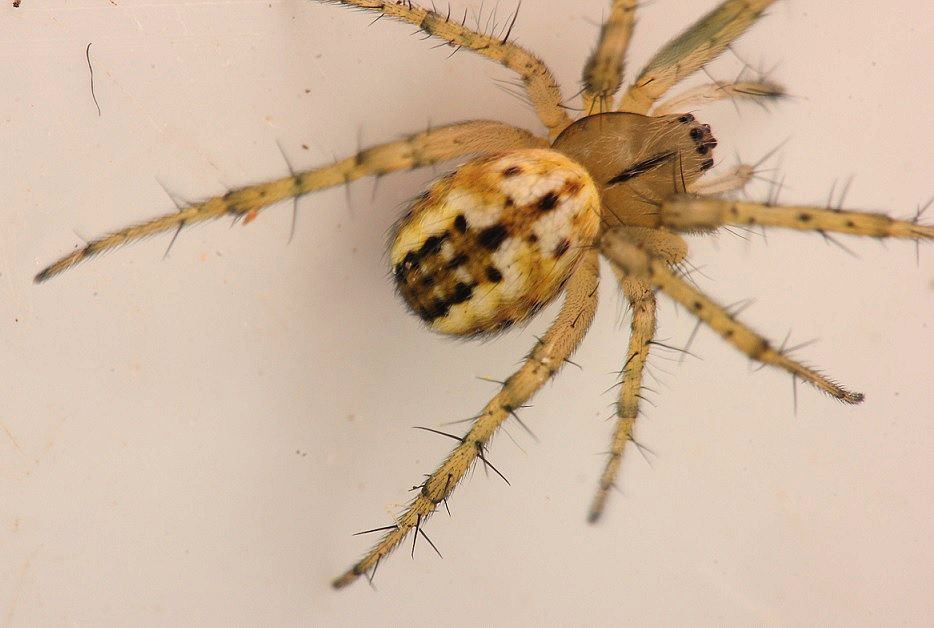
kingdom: Animalia
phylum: Arthropoda
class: Arachnida
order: Araneae
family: Araneidae
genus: Mangora
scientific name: Mangora acalypha
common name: Sortstribet hedehjulspinder
